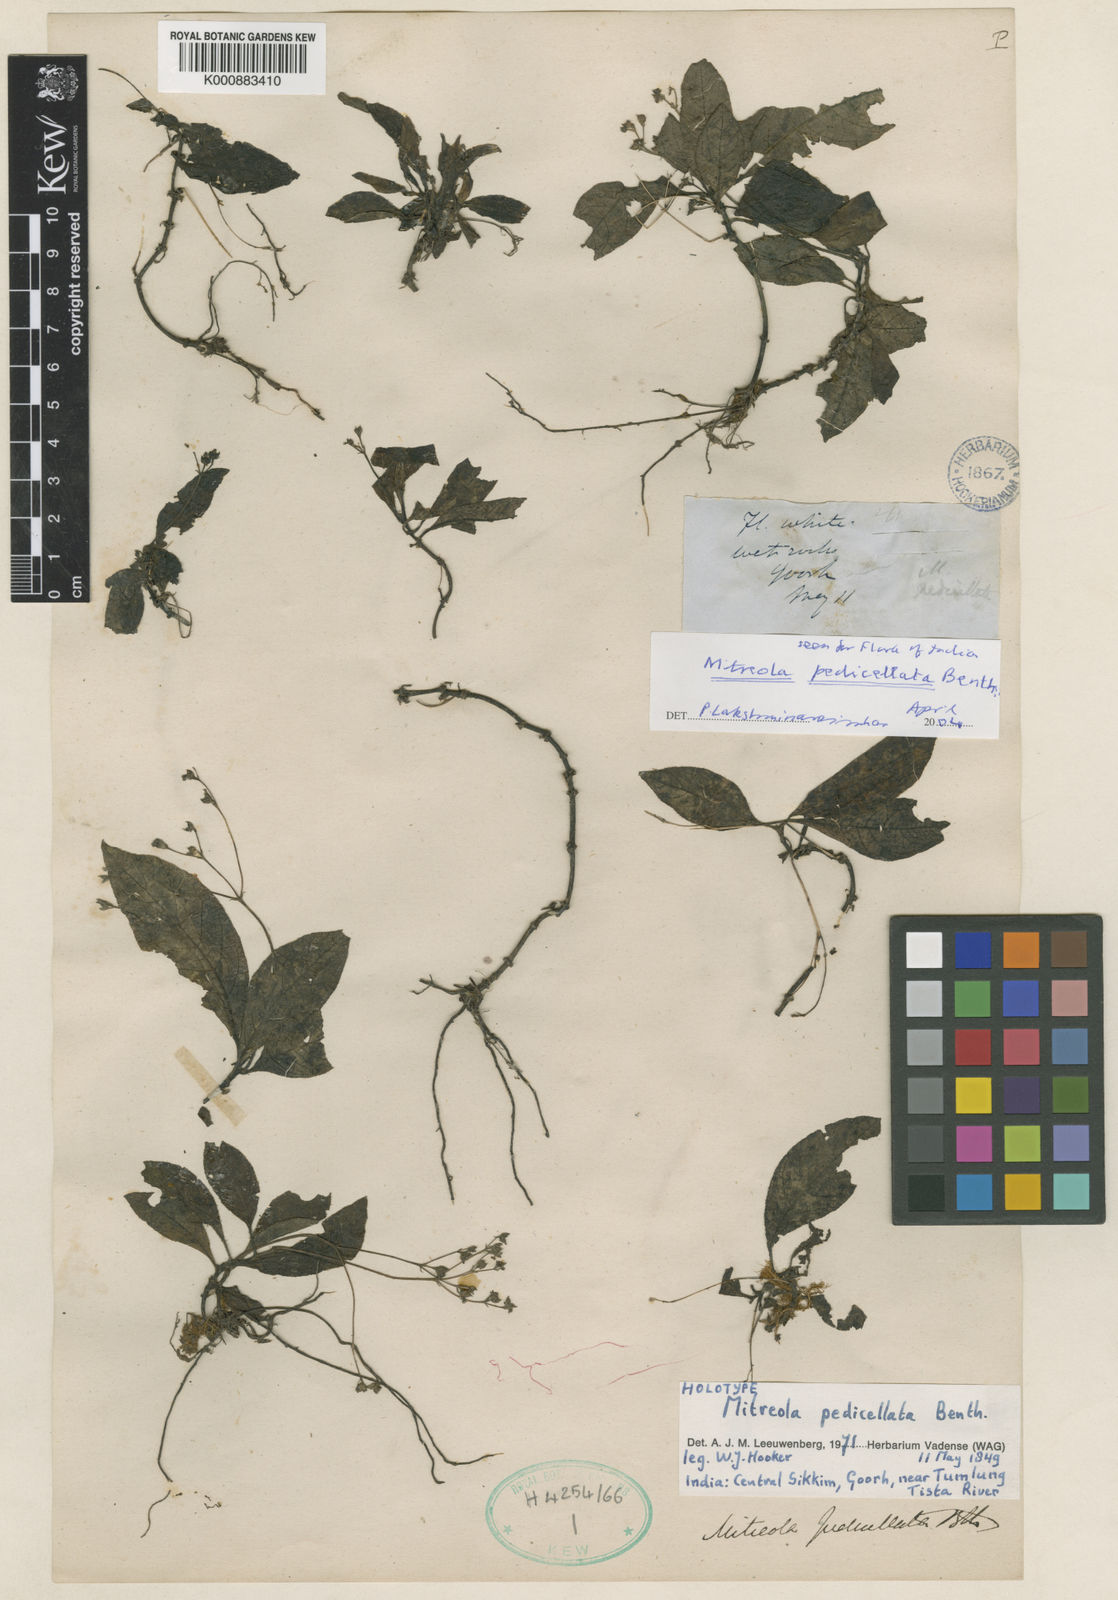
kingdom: Plantae
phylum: Tracheophyta
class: Magnoliopsida
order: Gentianales
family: Loganiaceae
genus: Mitreola
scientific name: Mitreola pedicellata
